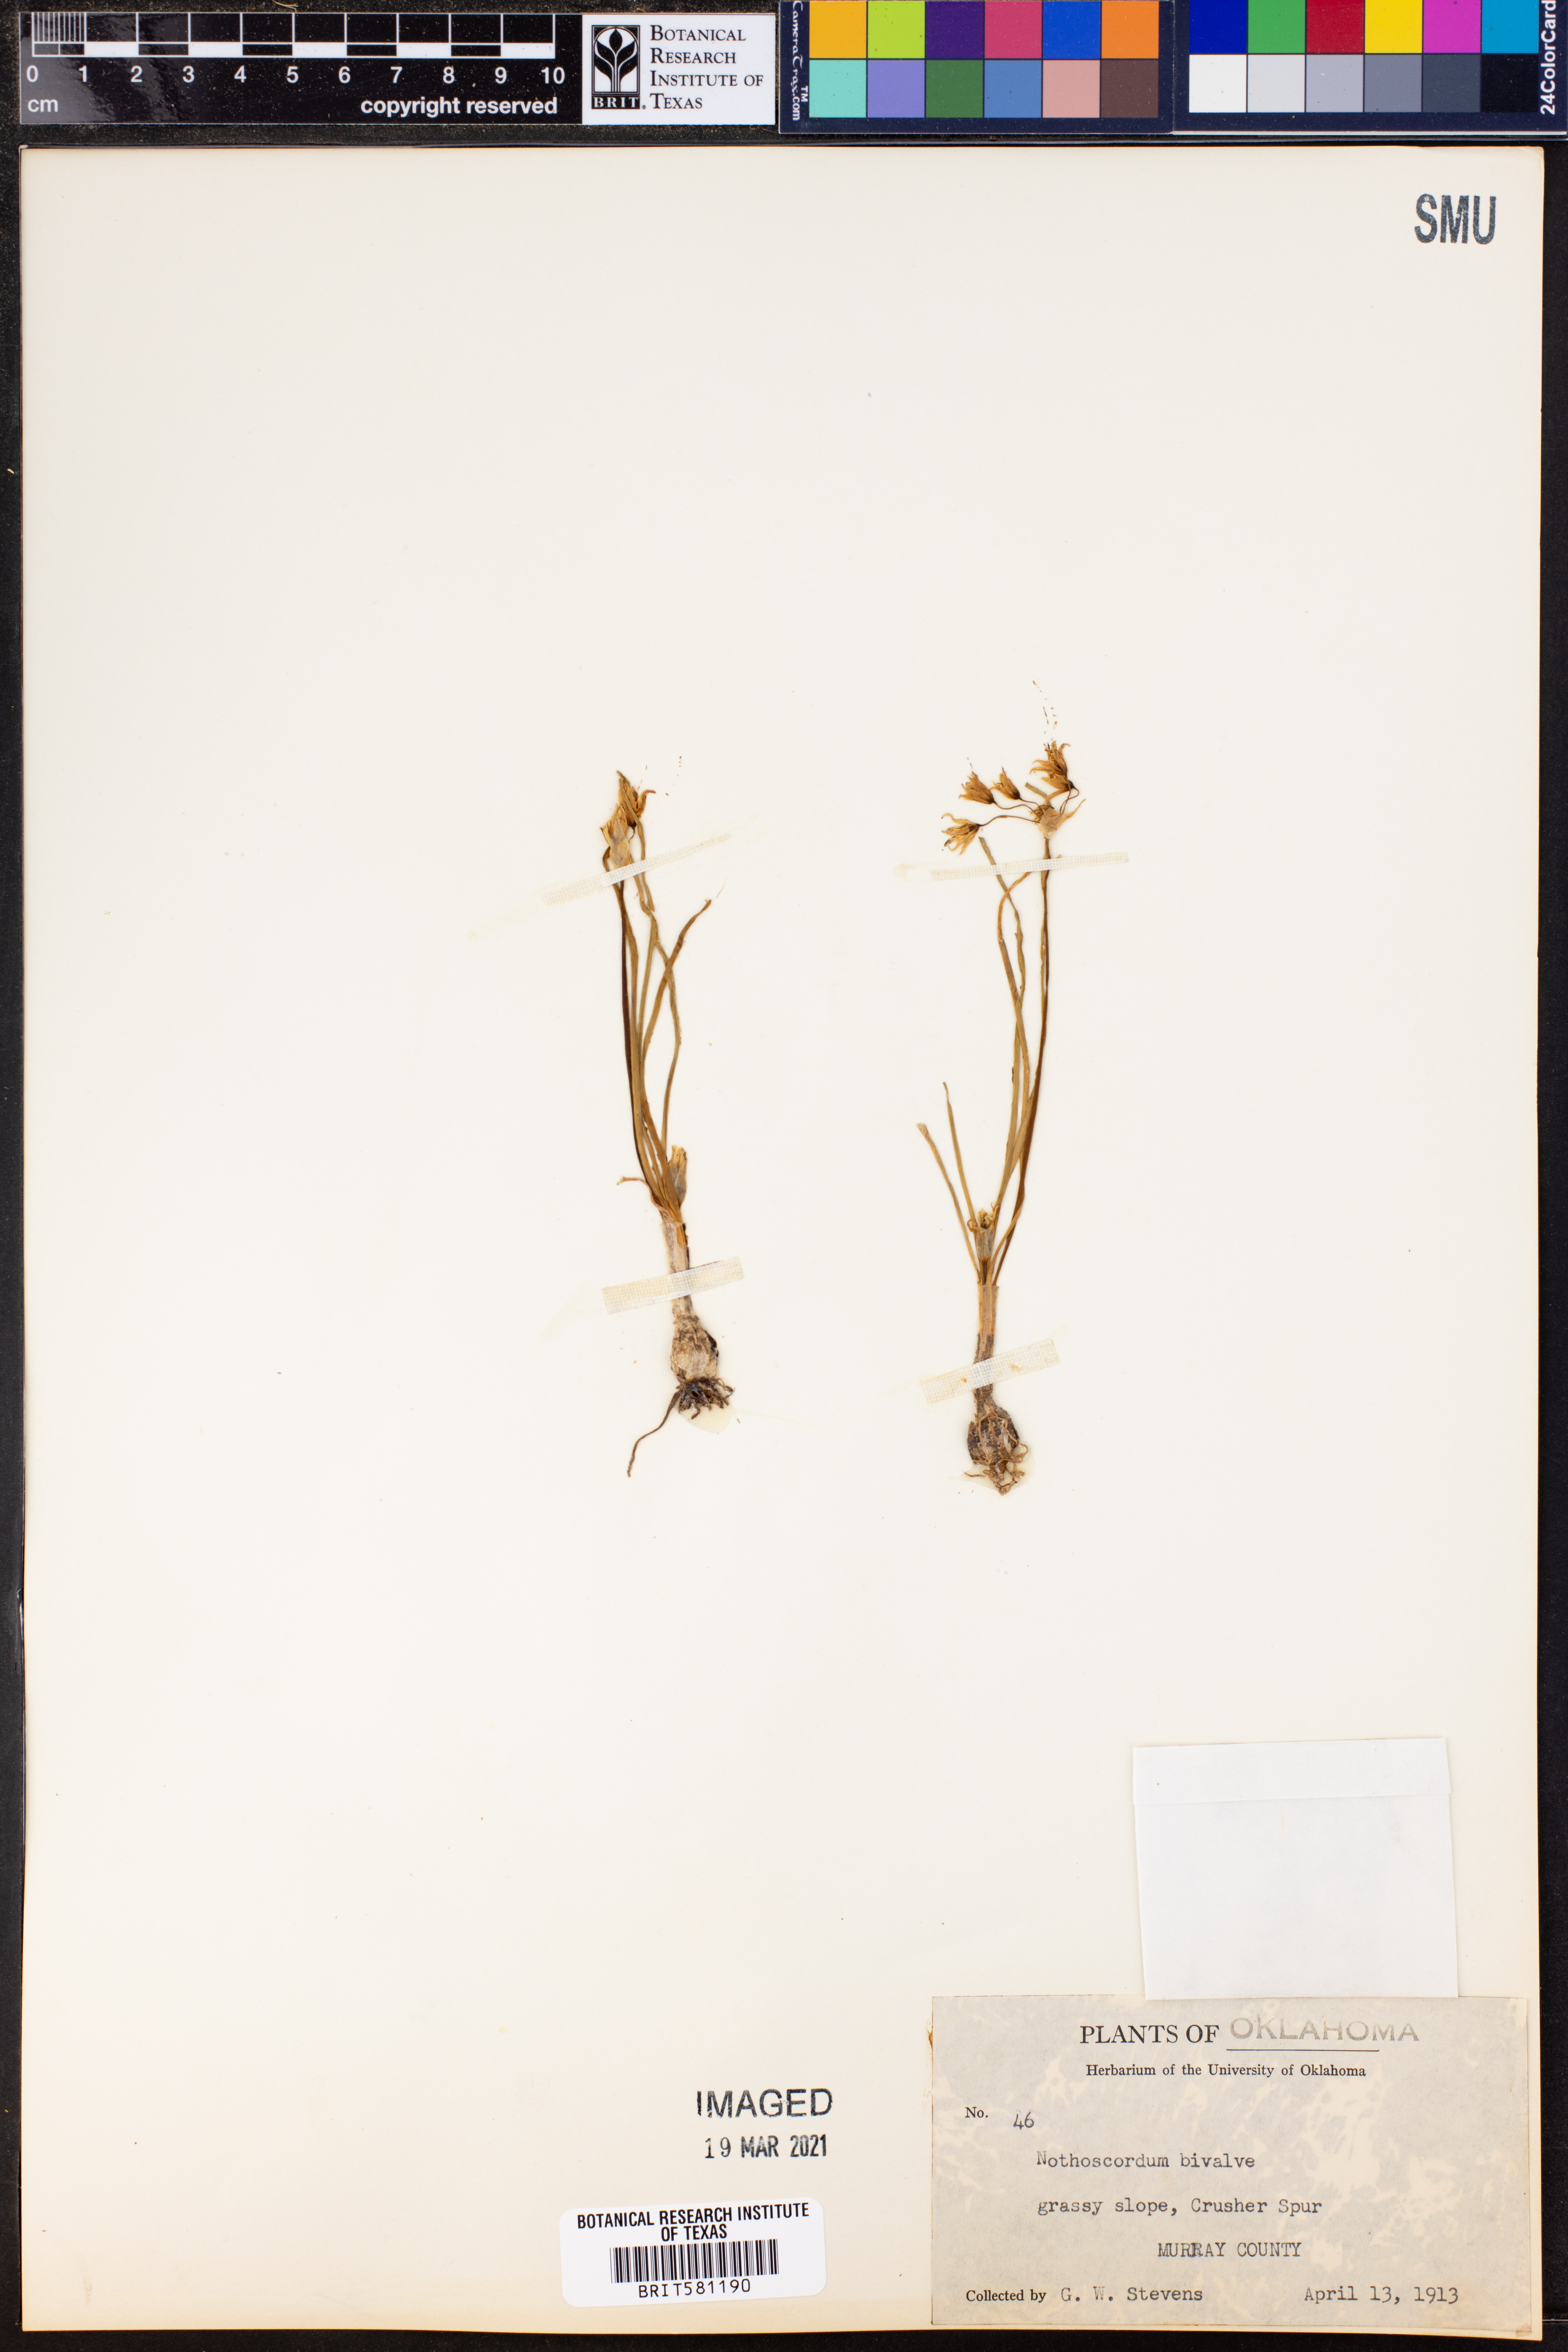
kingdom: Plantae
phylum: Tracheophyta
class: Liliopsida
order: Asparagales
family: Amaryllidaceae
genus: Nothoscordum
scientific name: Nothoscordum bivalve
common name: Crow-poison
